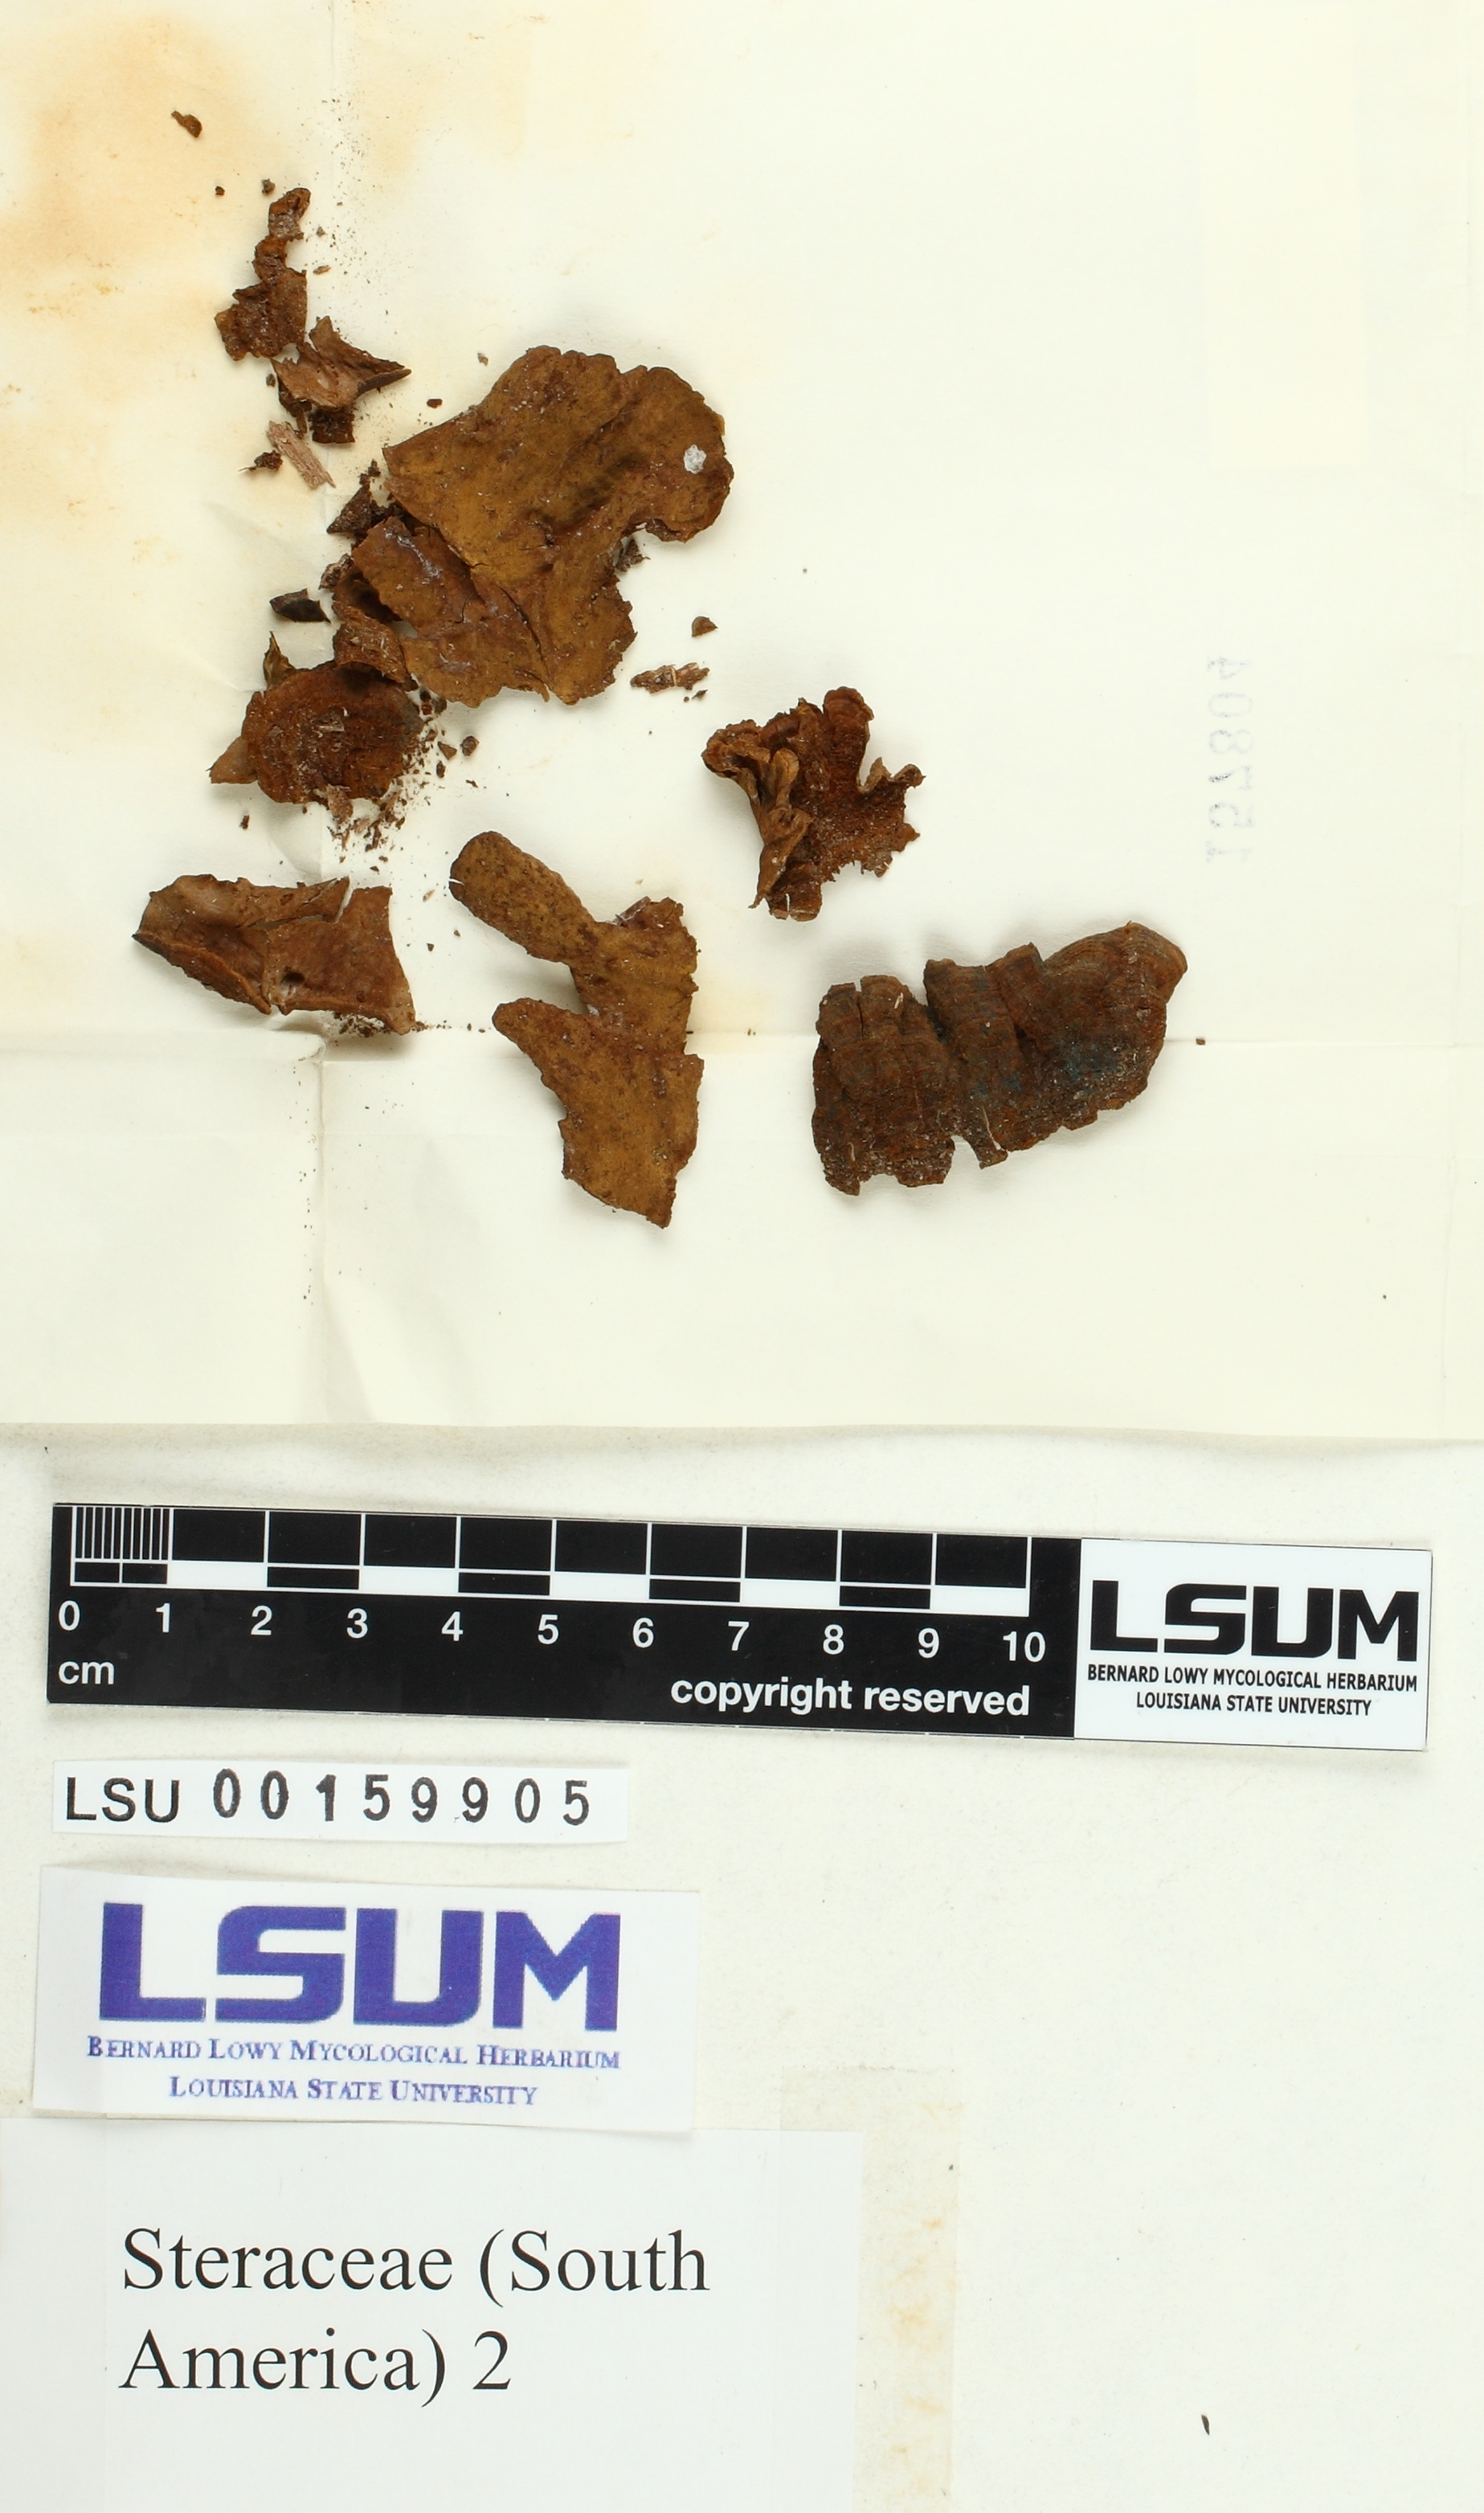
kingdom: Fungi
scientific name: Fungi
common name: Fungi
